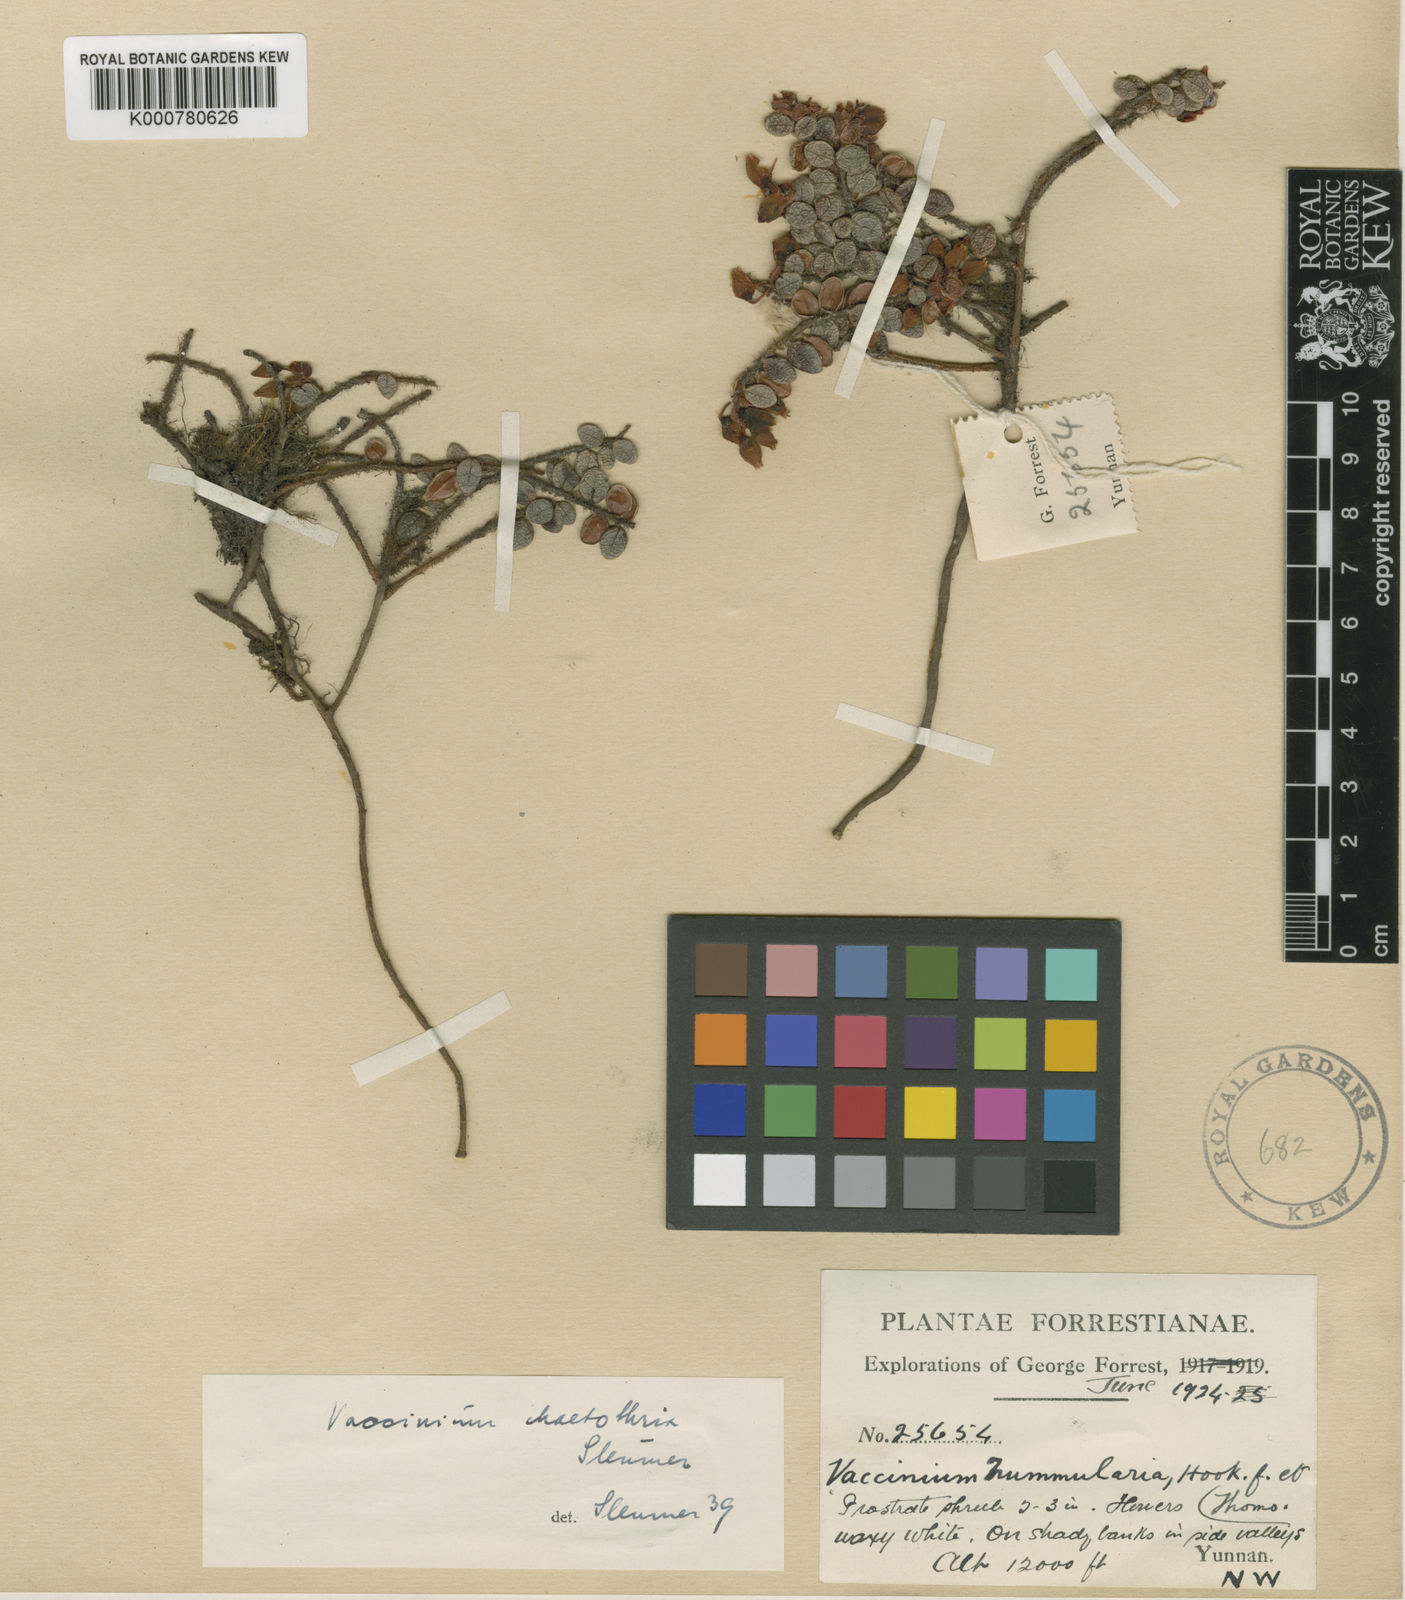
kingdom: Plantae
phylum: Tracheophyta
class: Magnoliopsida
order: Ericales
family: Ericaceae
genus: Vaccinium
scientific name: Vaccinium chaetothrix
